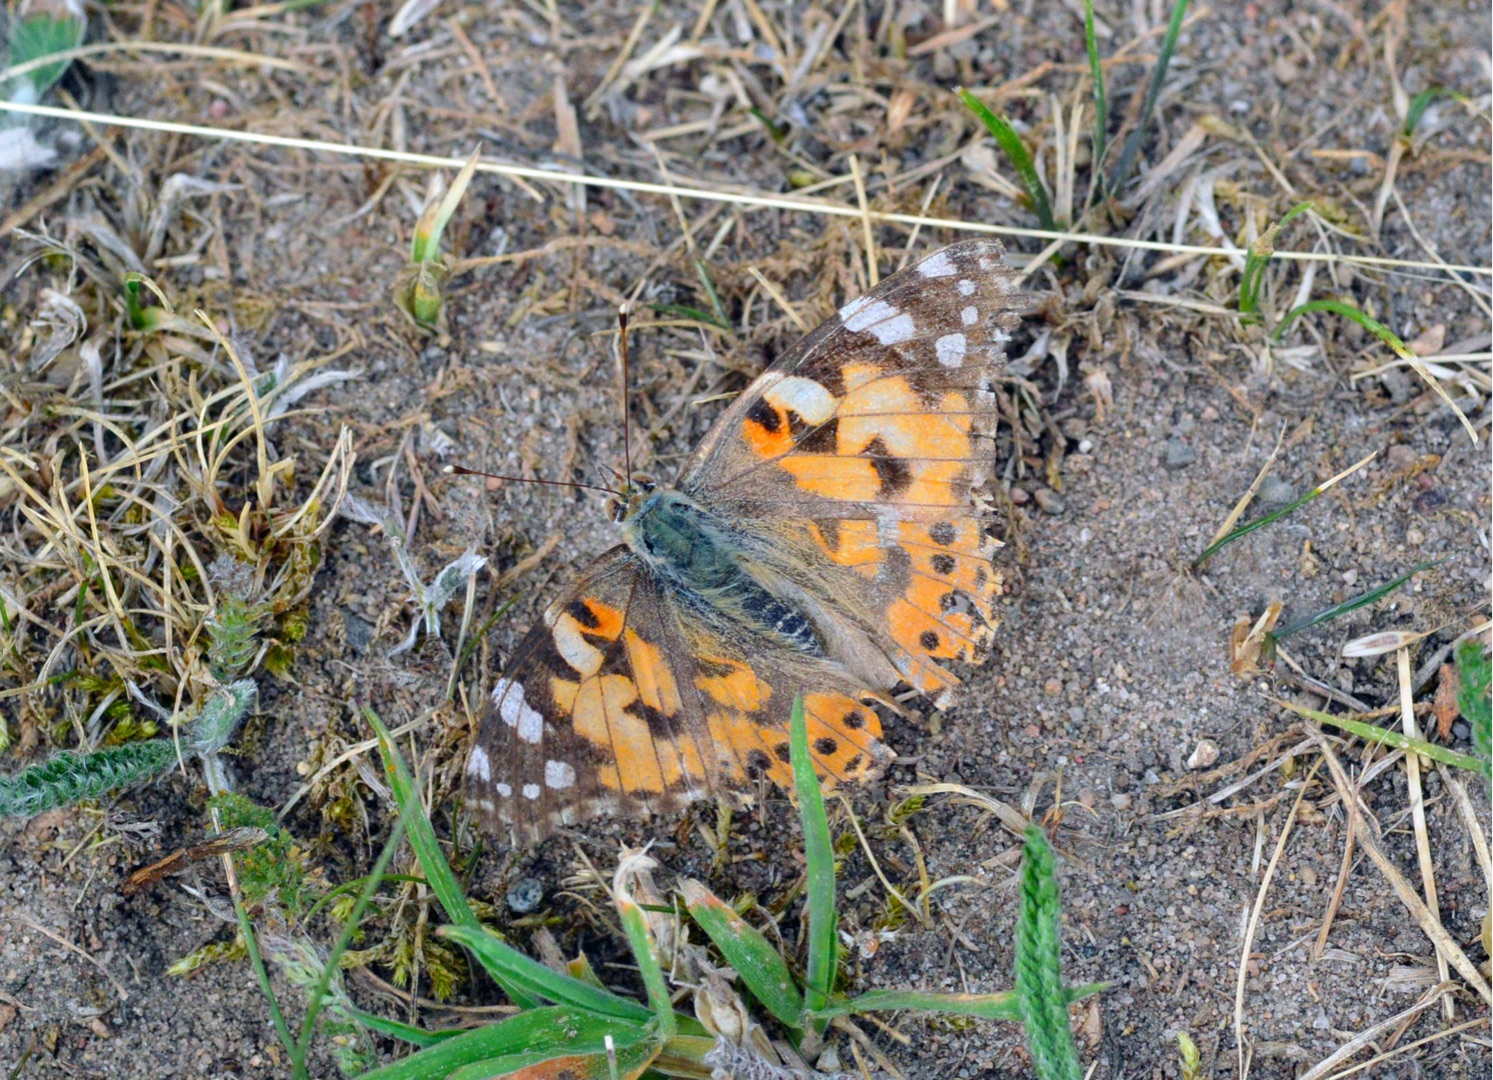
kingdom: Animalia
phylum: Arthropoda
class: Insecta
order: Lepidoptera
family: Nymphalidae
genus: Vanessa
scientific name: Vanessa cardui
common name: Tidselsommerfugl
